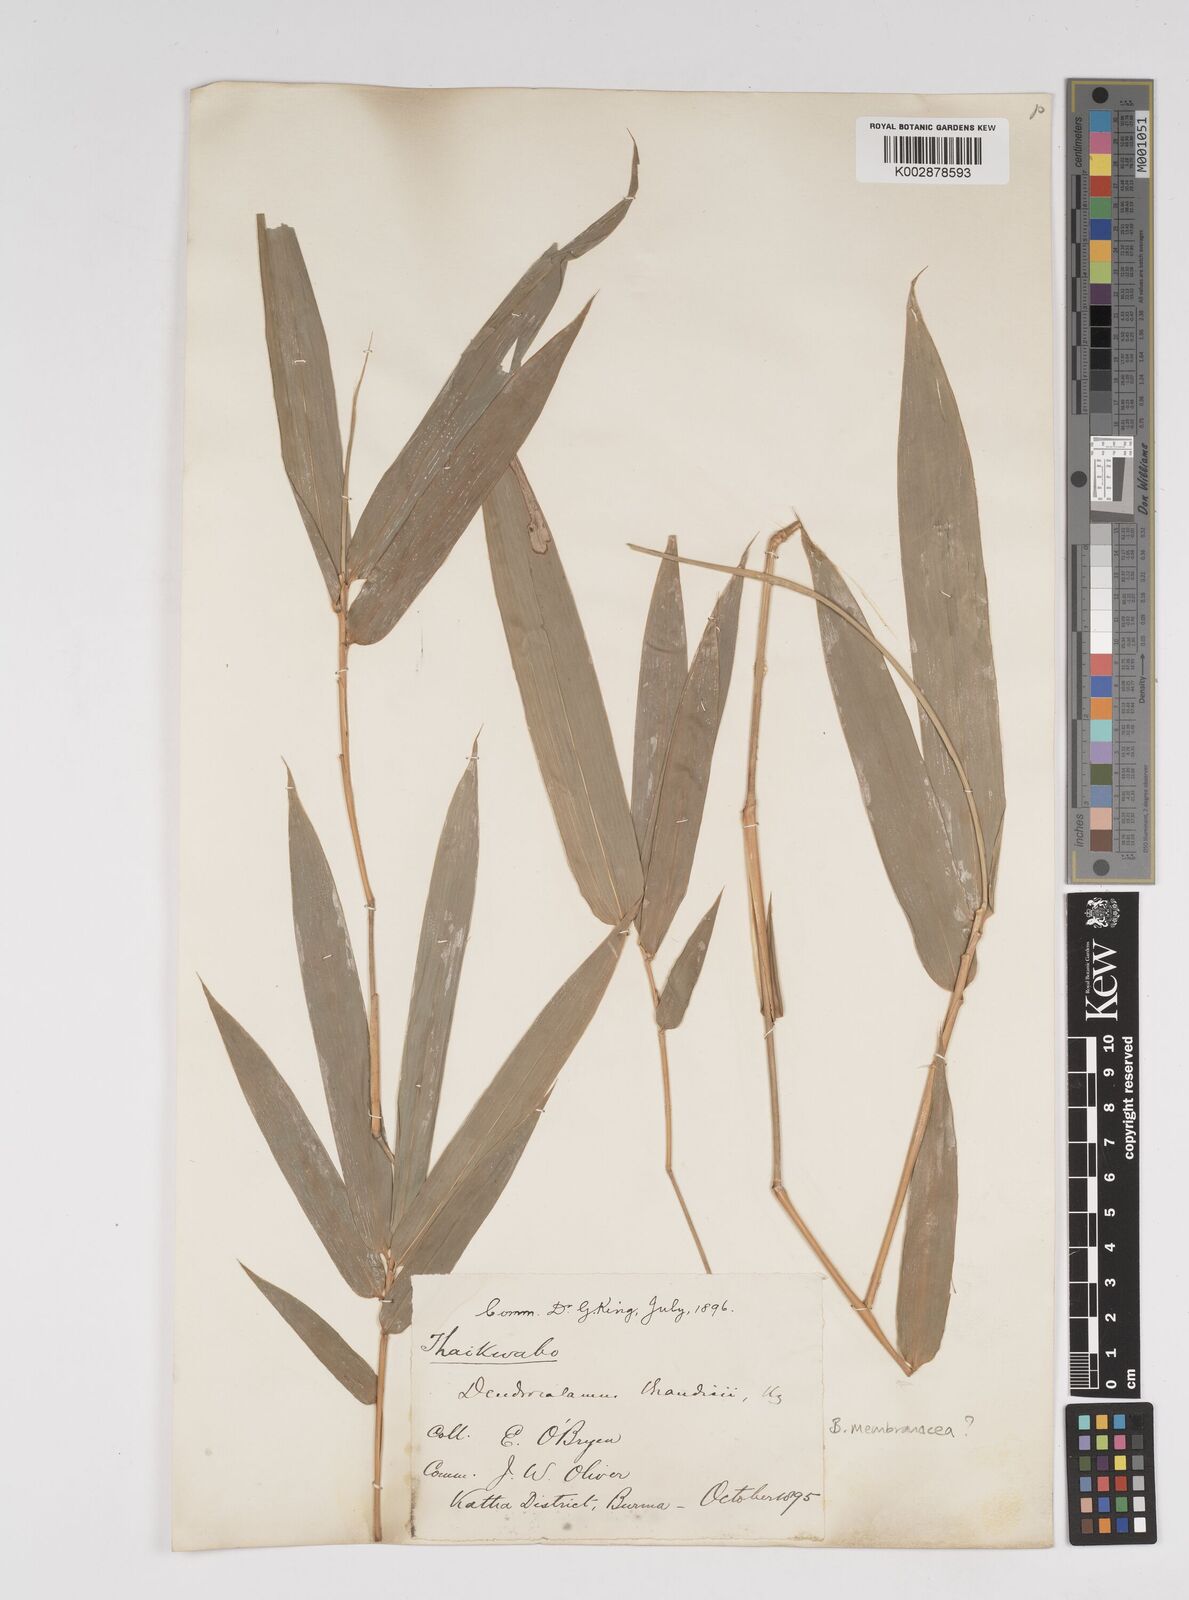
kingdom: Plantae
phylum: Tracheophyta
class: Liliopsida
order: Poales
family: Poaceae
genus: Dendrocalamus
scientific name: Dendrocalamus brandisii
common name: Velvetleaf bamboo
